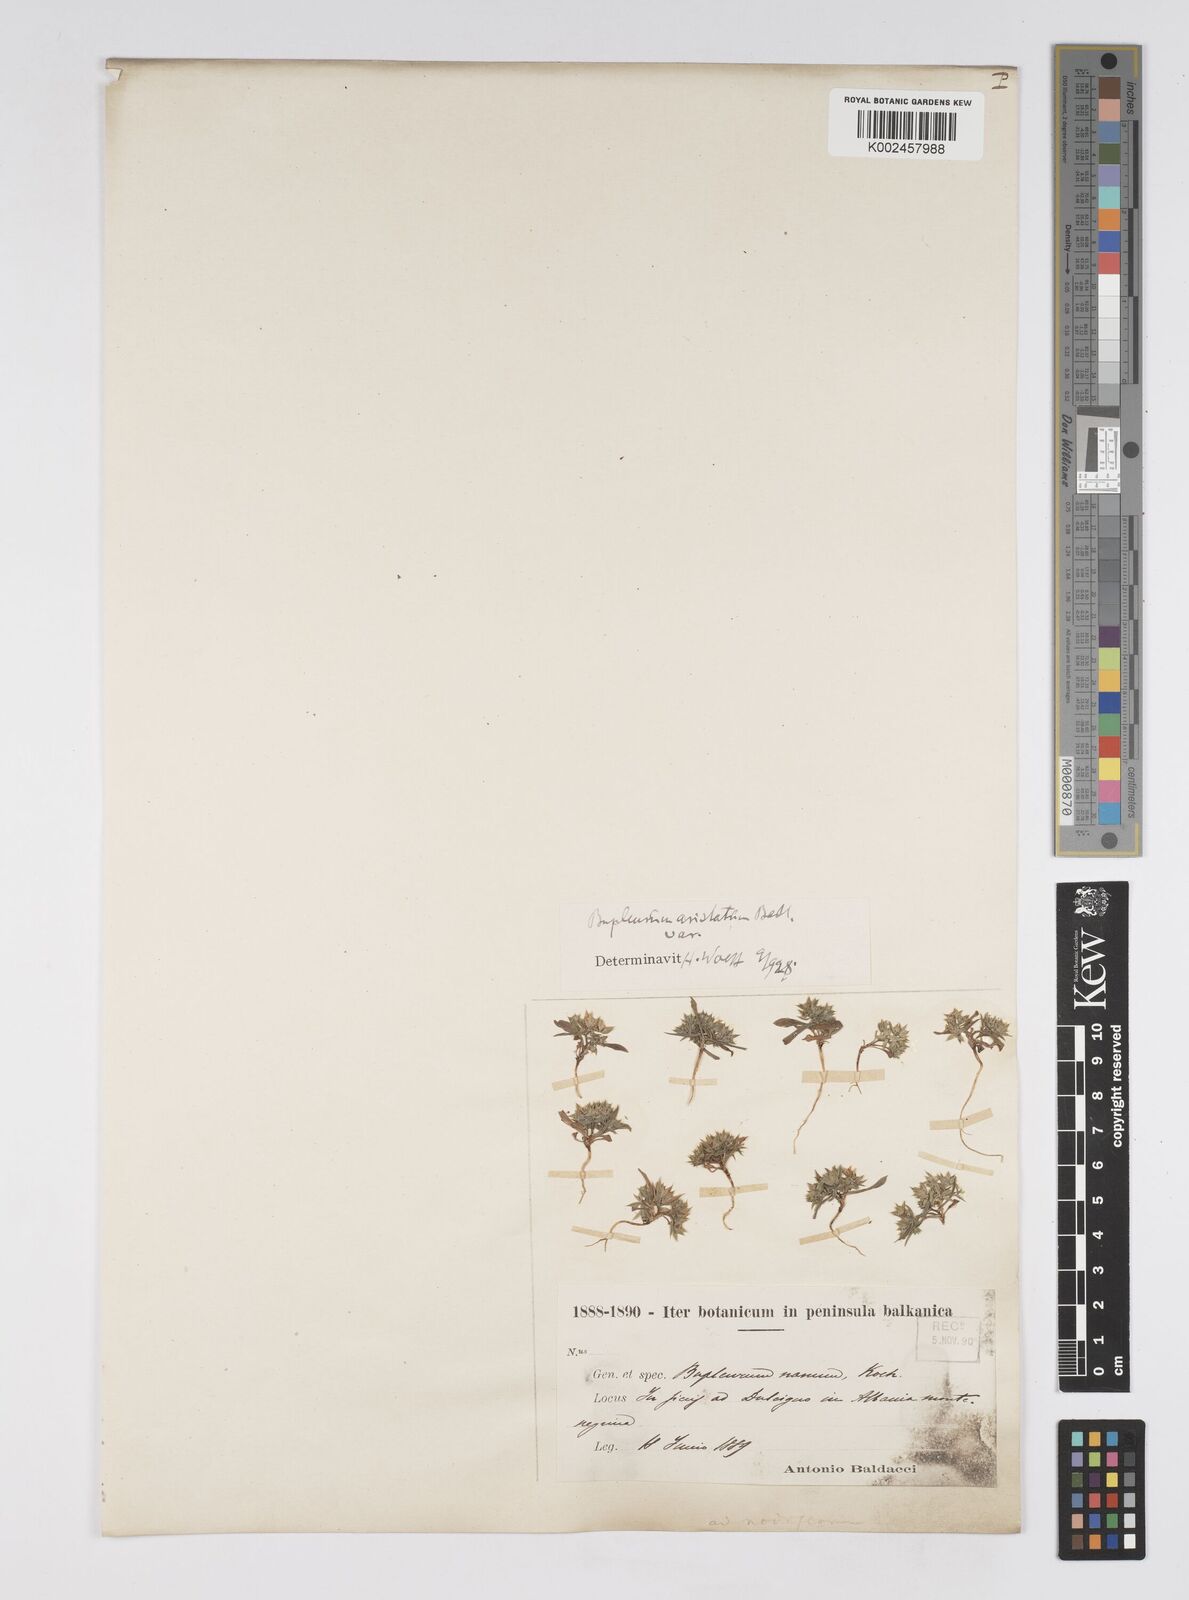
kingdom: Plantae
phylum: Tracheophyta
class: Magnoliopsida
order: Apiales
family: Apiaceae
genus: Bupleurum
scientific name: Bupleurum glumaceum
